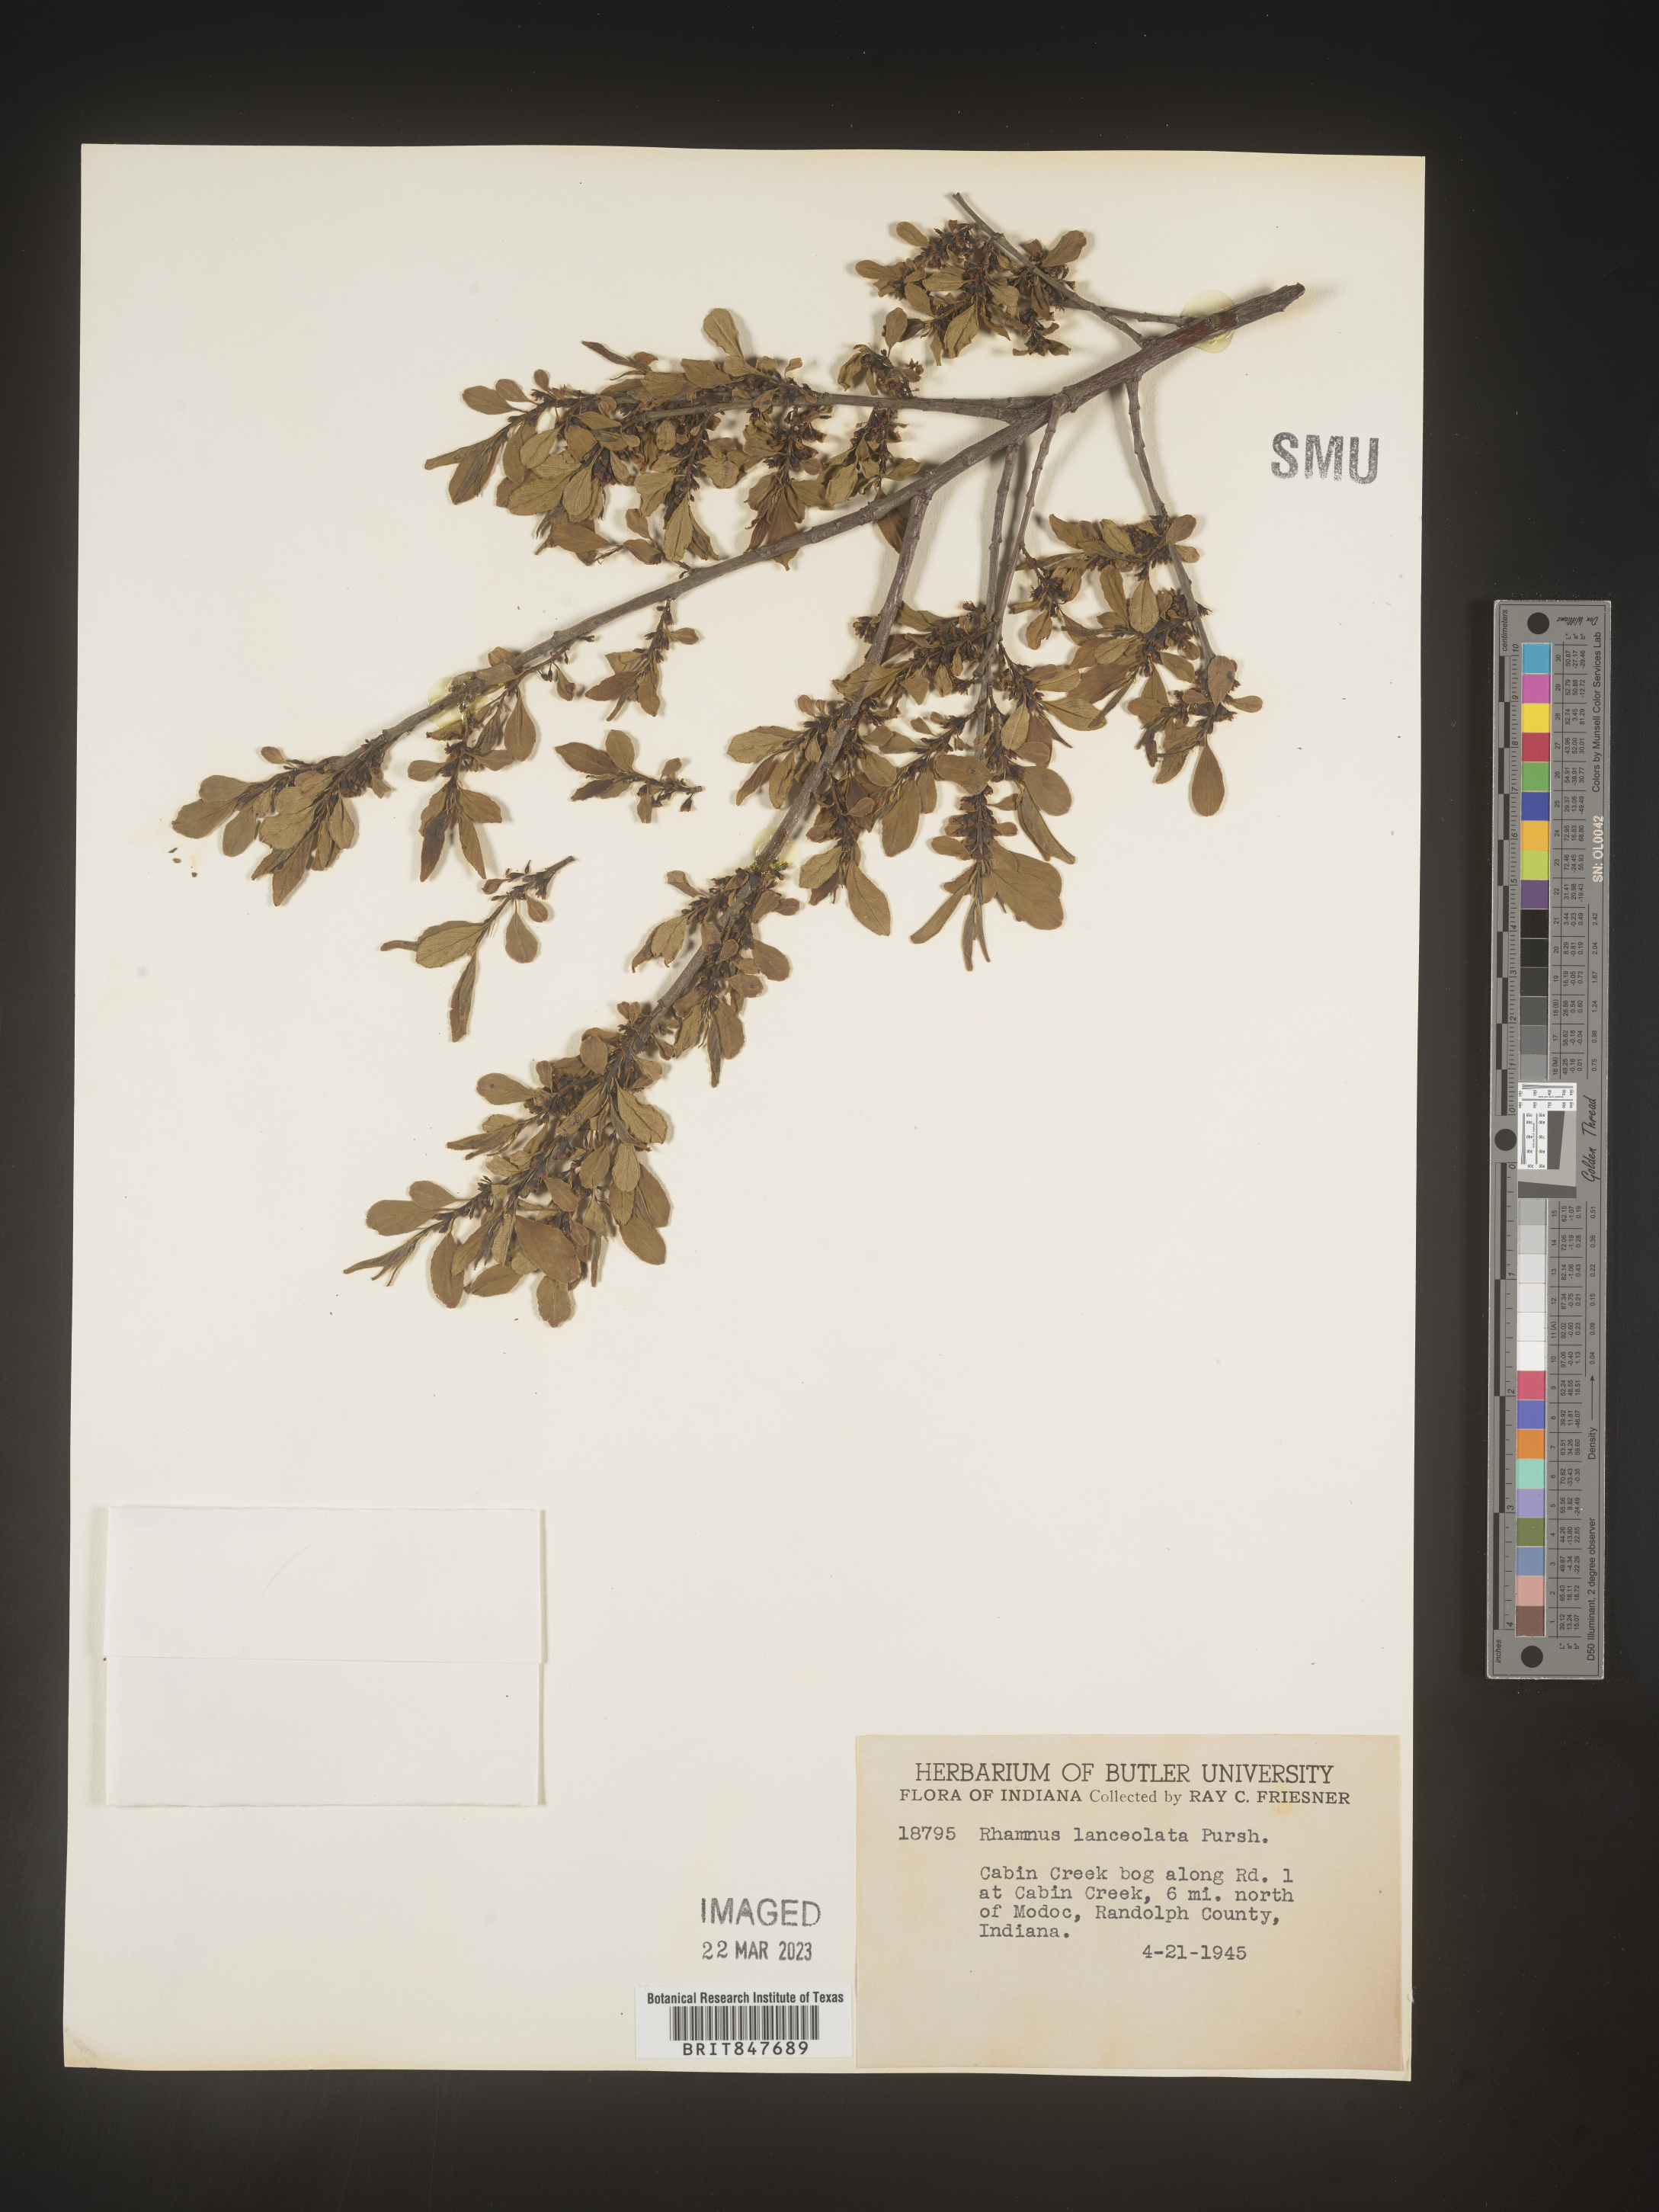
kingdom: Plantae
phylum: Tracheophyta
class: Magnoliopsida
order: Rosales
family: Rhamnaceae
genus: Endotropis
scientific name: Endotropis lanceolata
